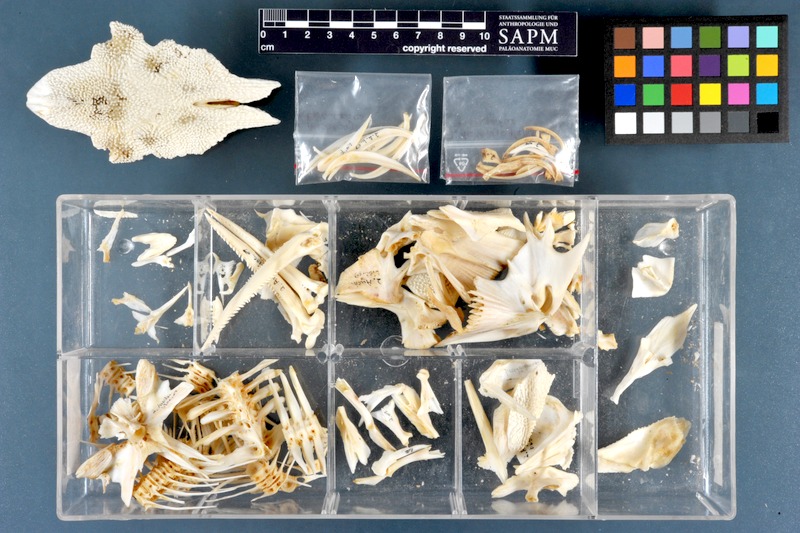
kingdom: Animalia
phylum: Chordata
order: Siluriformes
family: Claroteidae
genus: Auchenoglanis
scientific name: Auchenoglanis biscutatus
